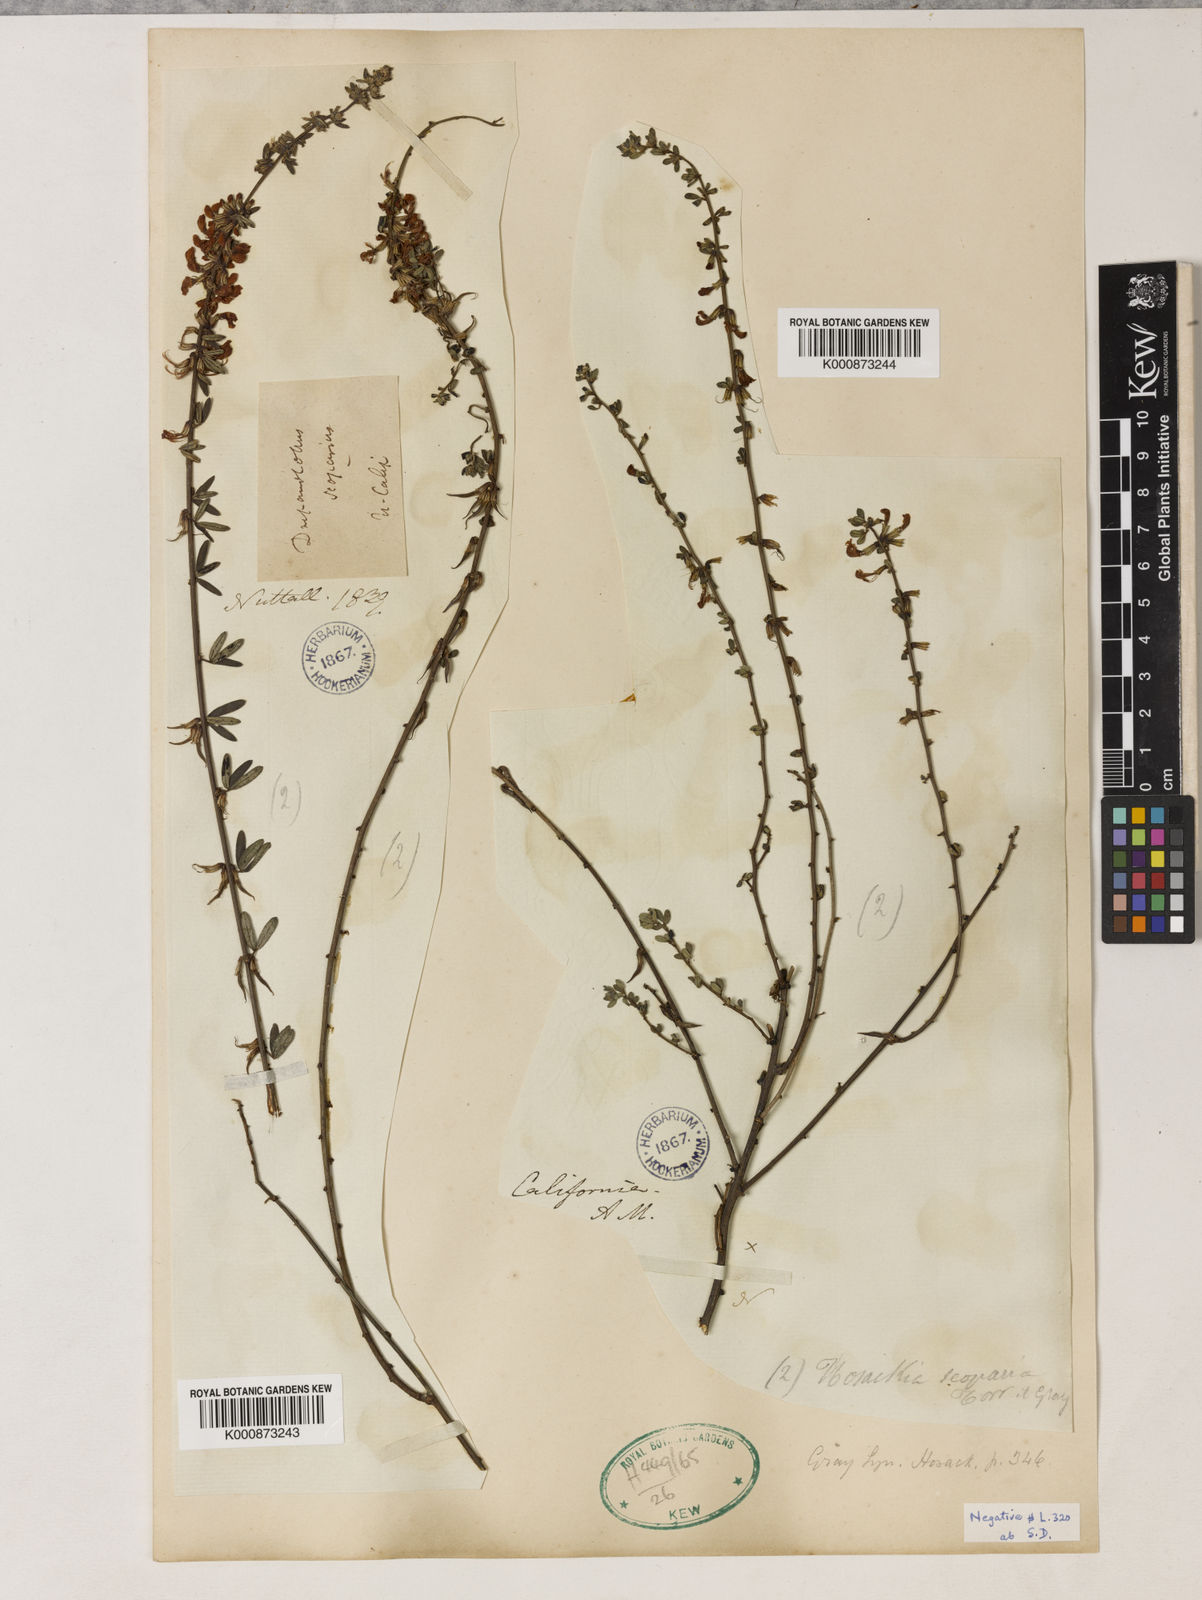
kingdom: Plantae
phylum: Tracheophyta
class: Magnoliopsida
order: Fabales
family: Fabaceae
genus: Acmispon
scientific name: Acmispon glaber
